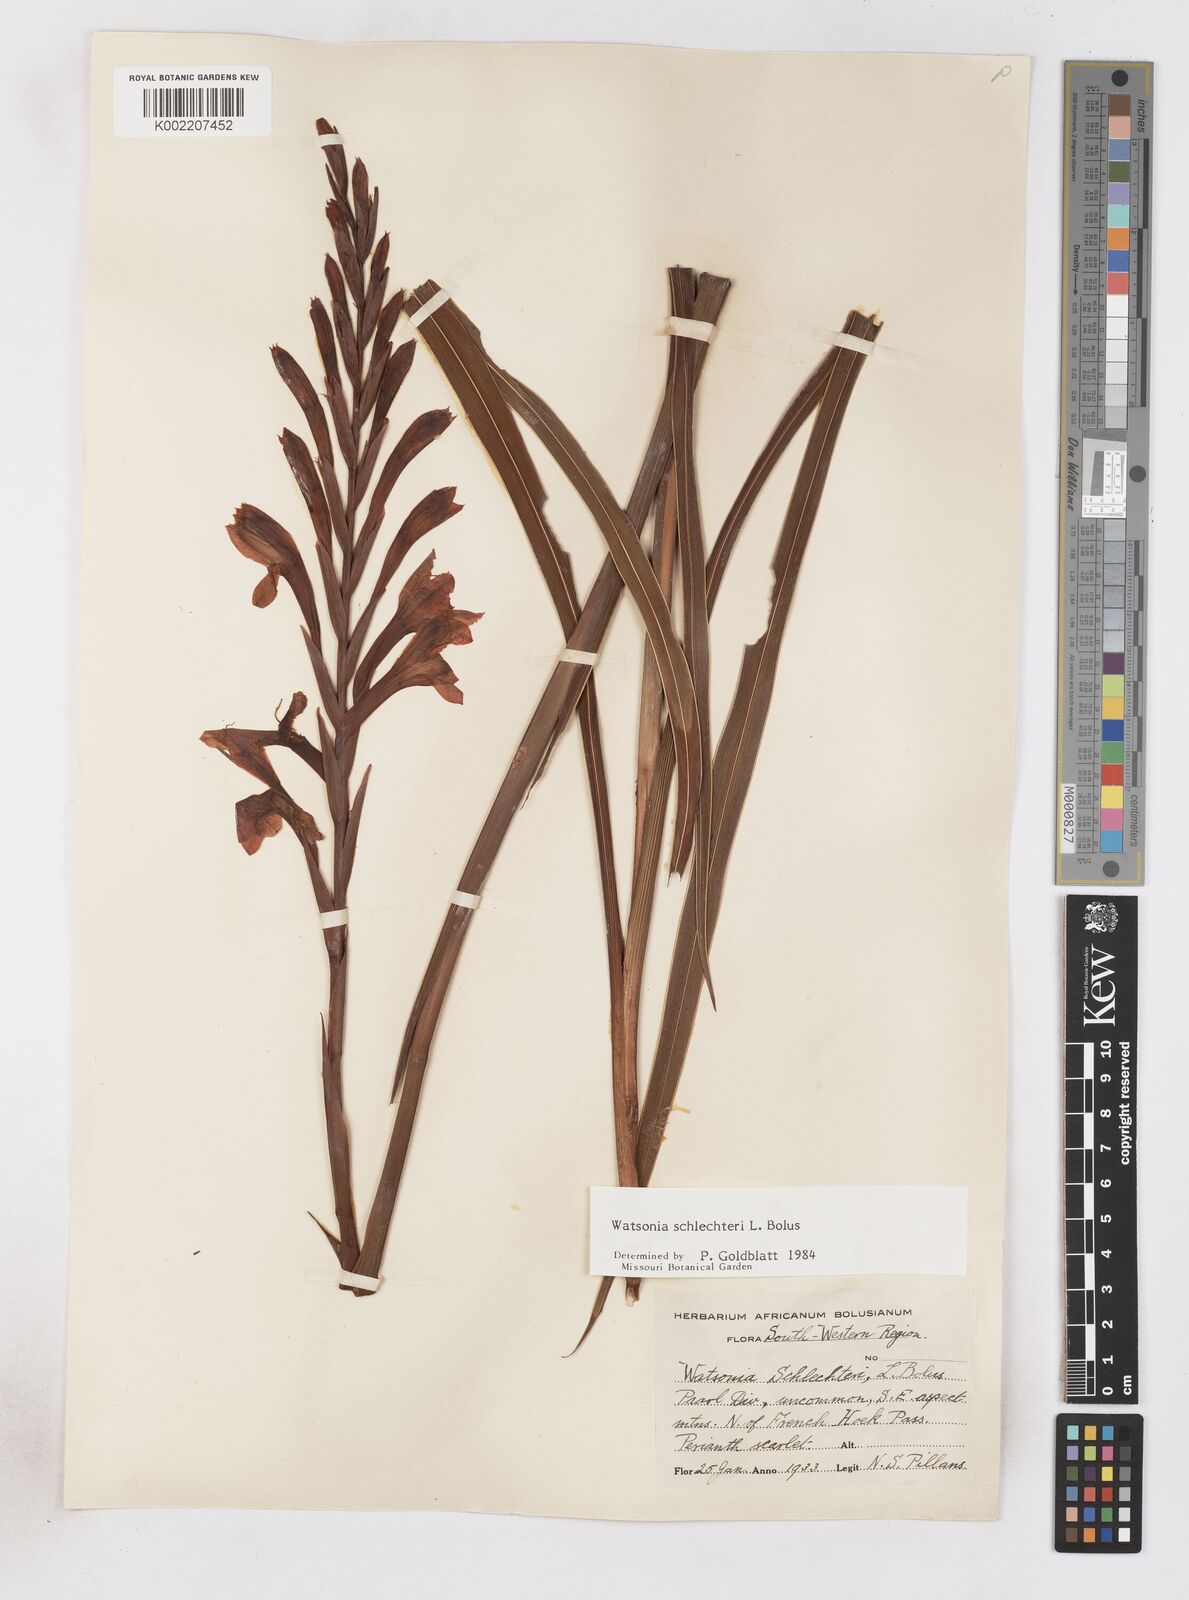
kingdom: Plantae
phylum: Tracheophyta
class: Liliopsida
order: Asparagales
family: Iridaceae
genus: Watsonia
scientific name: Watsonia schlechteri
